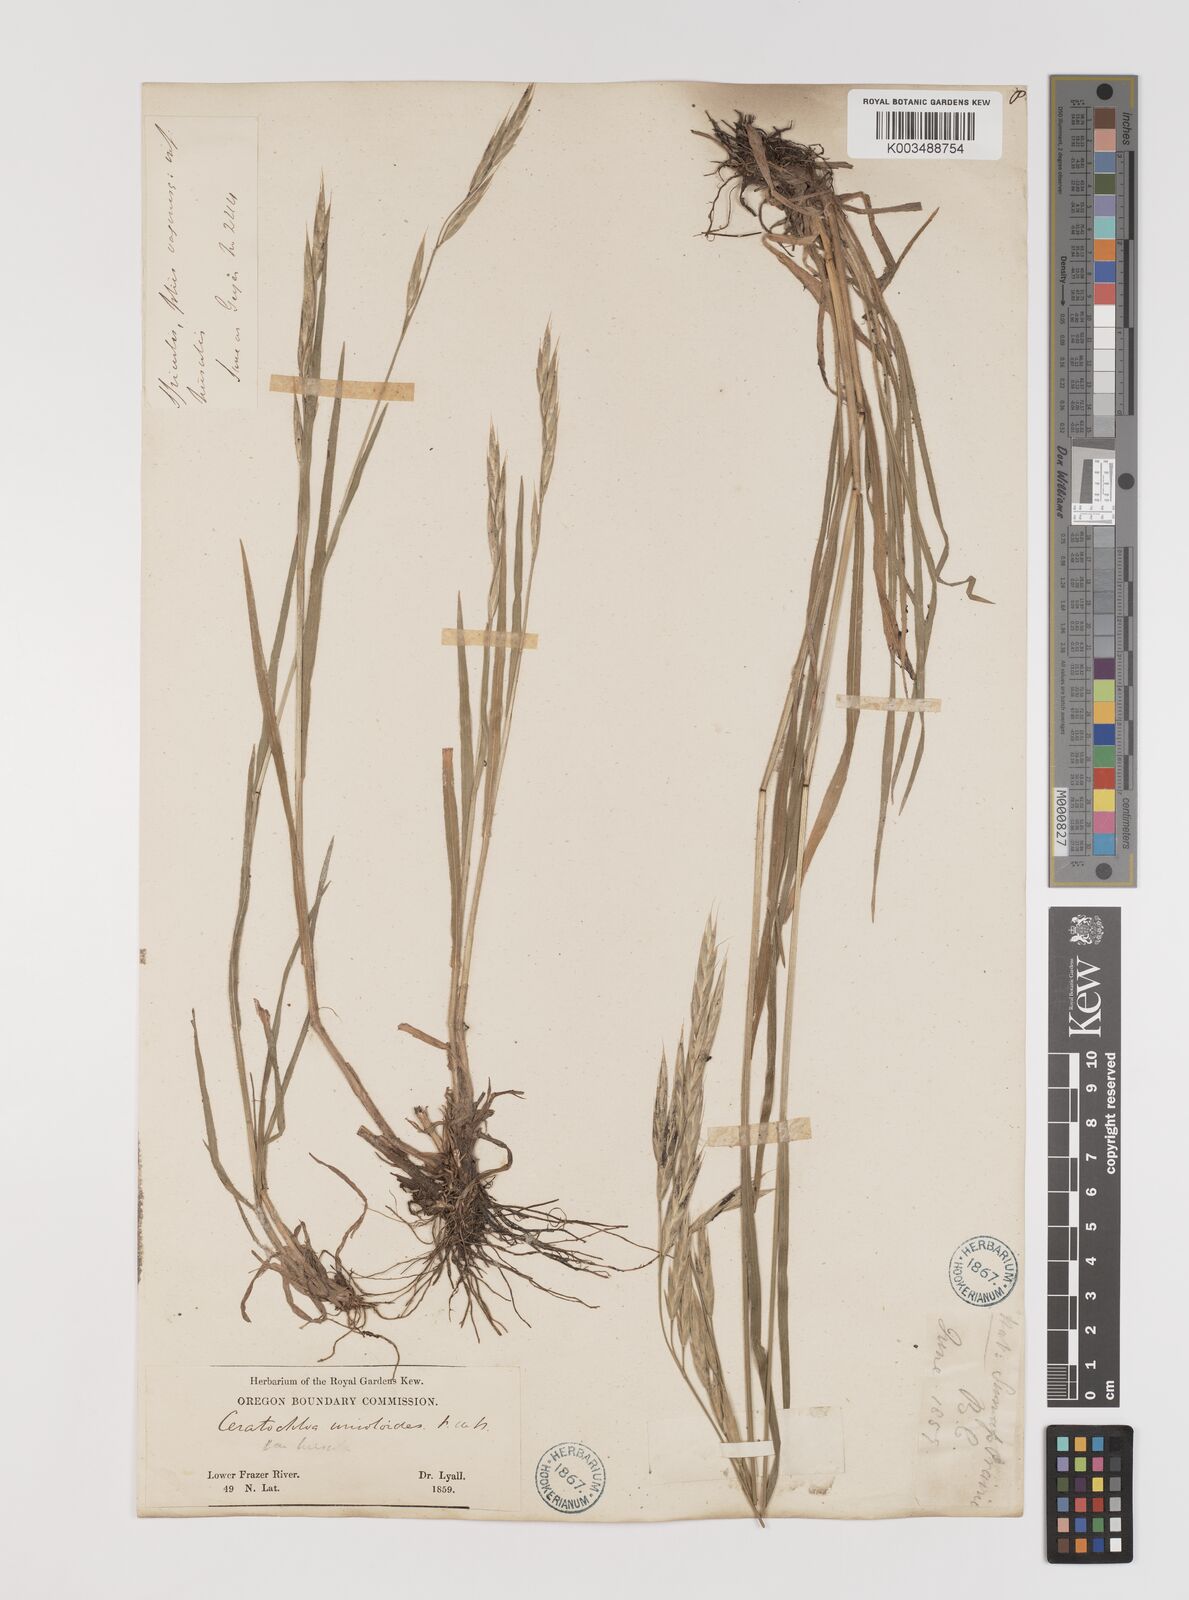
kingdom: Plantae
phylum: Tracheophyta
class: Liliopsida
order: Poales
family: Poaceae
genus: Bromus
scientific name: Bromus
